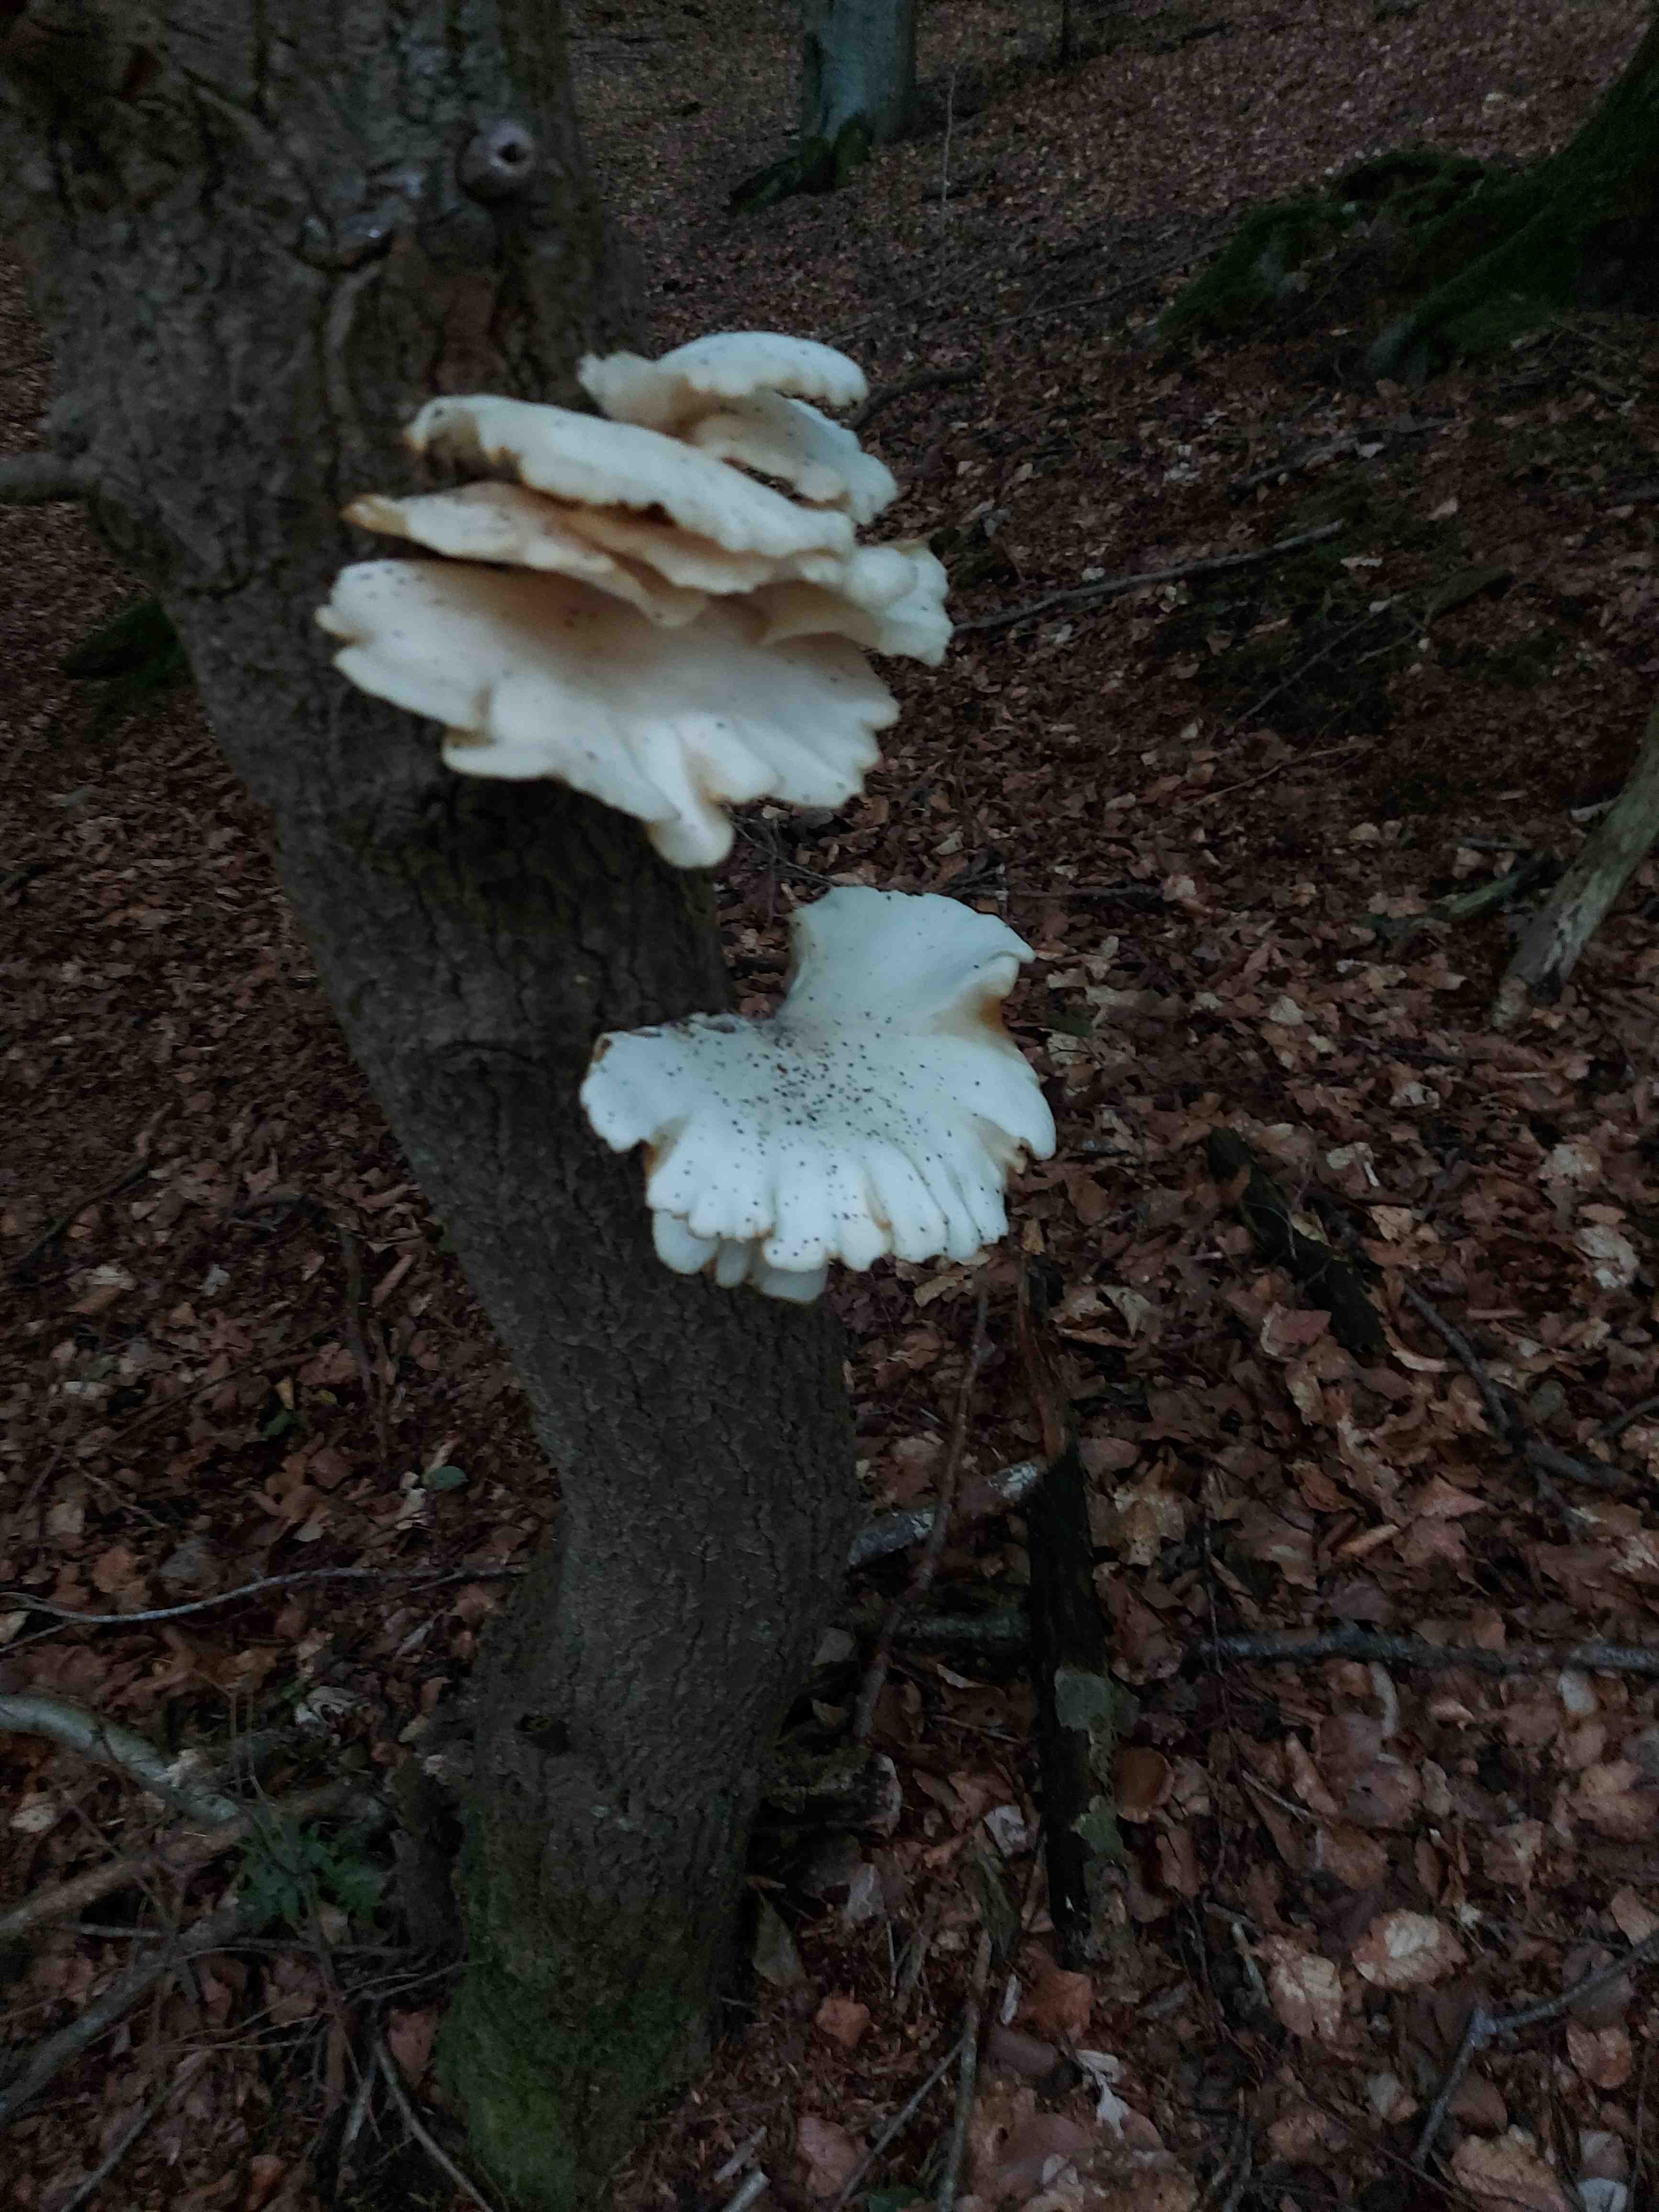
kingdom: Fungi
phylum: Basidiomycota
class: Agaricomycetes
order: Agaricales
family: Pleurotaceae
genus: Pleurotus
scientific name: Pleurotus pulmonarius
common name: sommer-østershat
